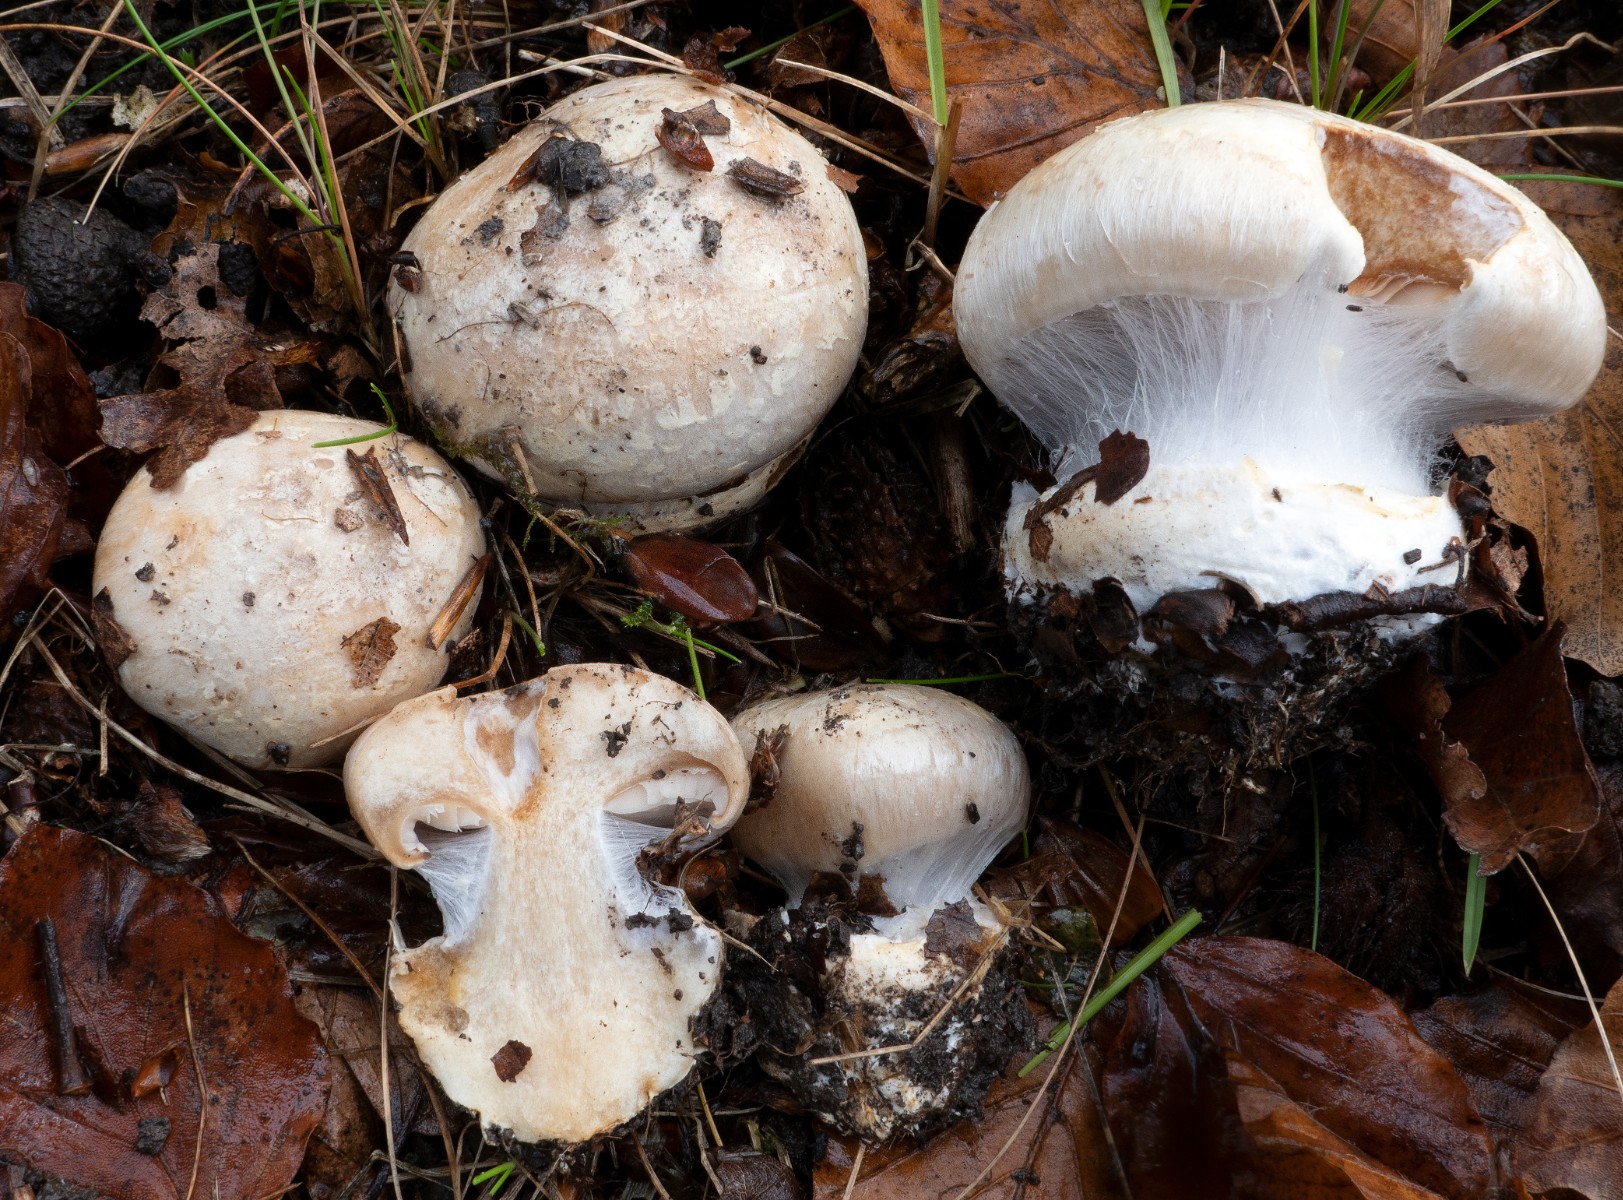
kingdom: Fungi
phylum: Basidiomycota
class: Agaricomycetes
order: Agaricales
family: Cortinariaceae
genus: Cortinarius
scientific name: Cortinarius foetens
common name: stribet slørhat
